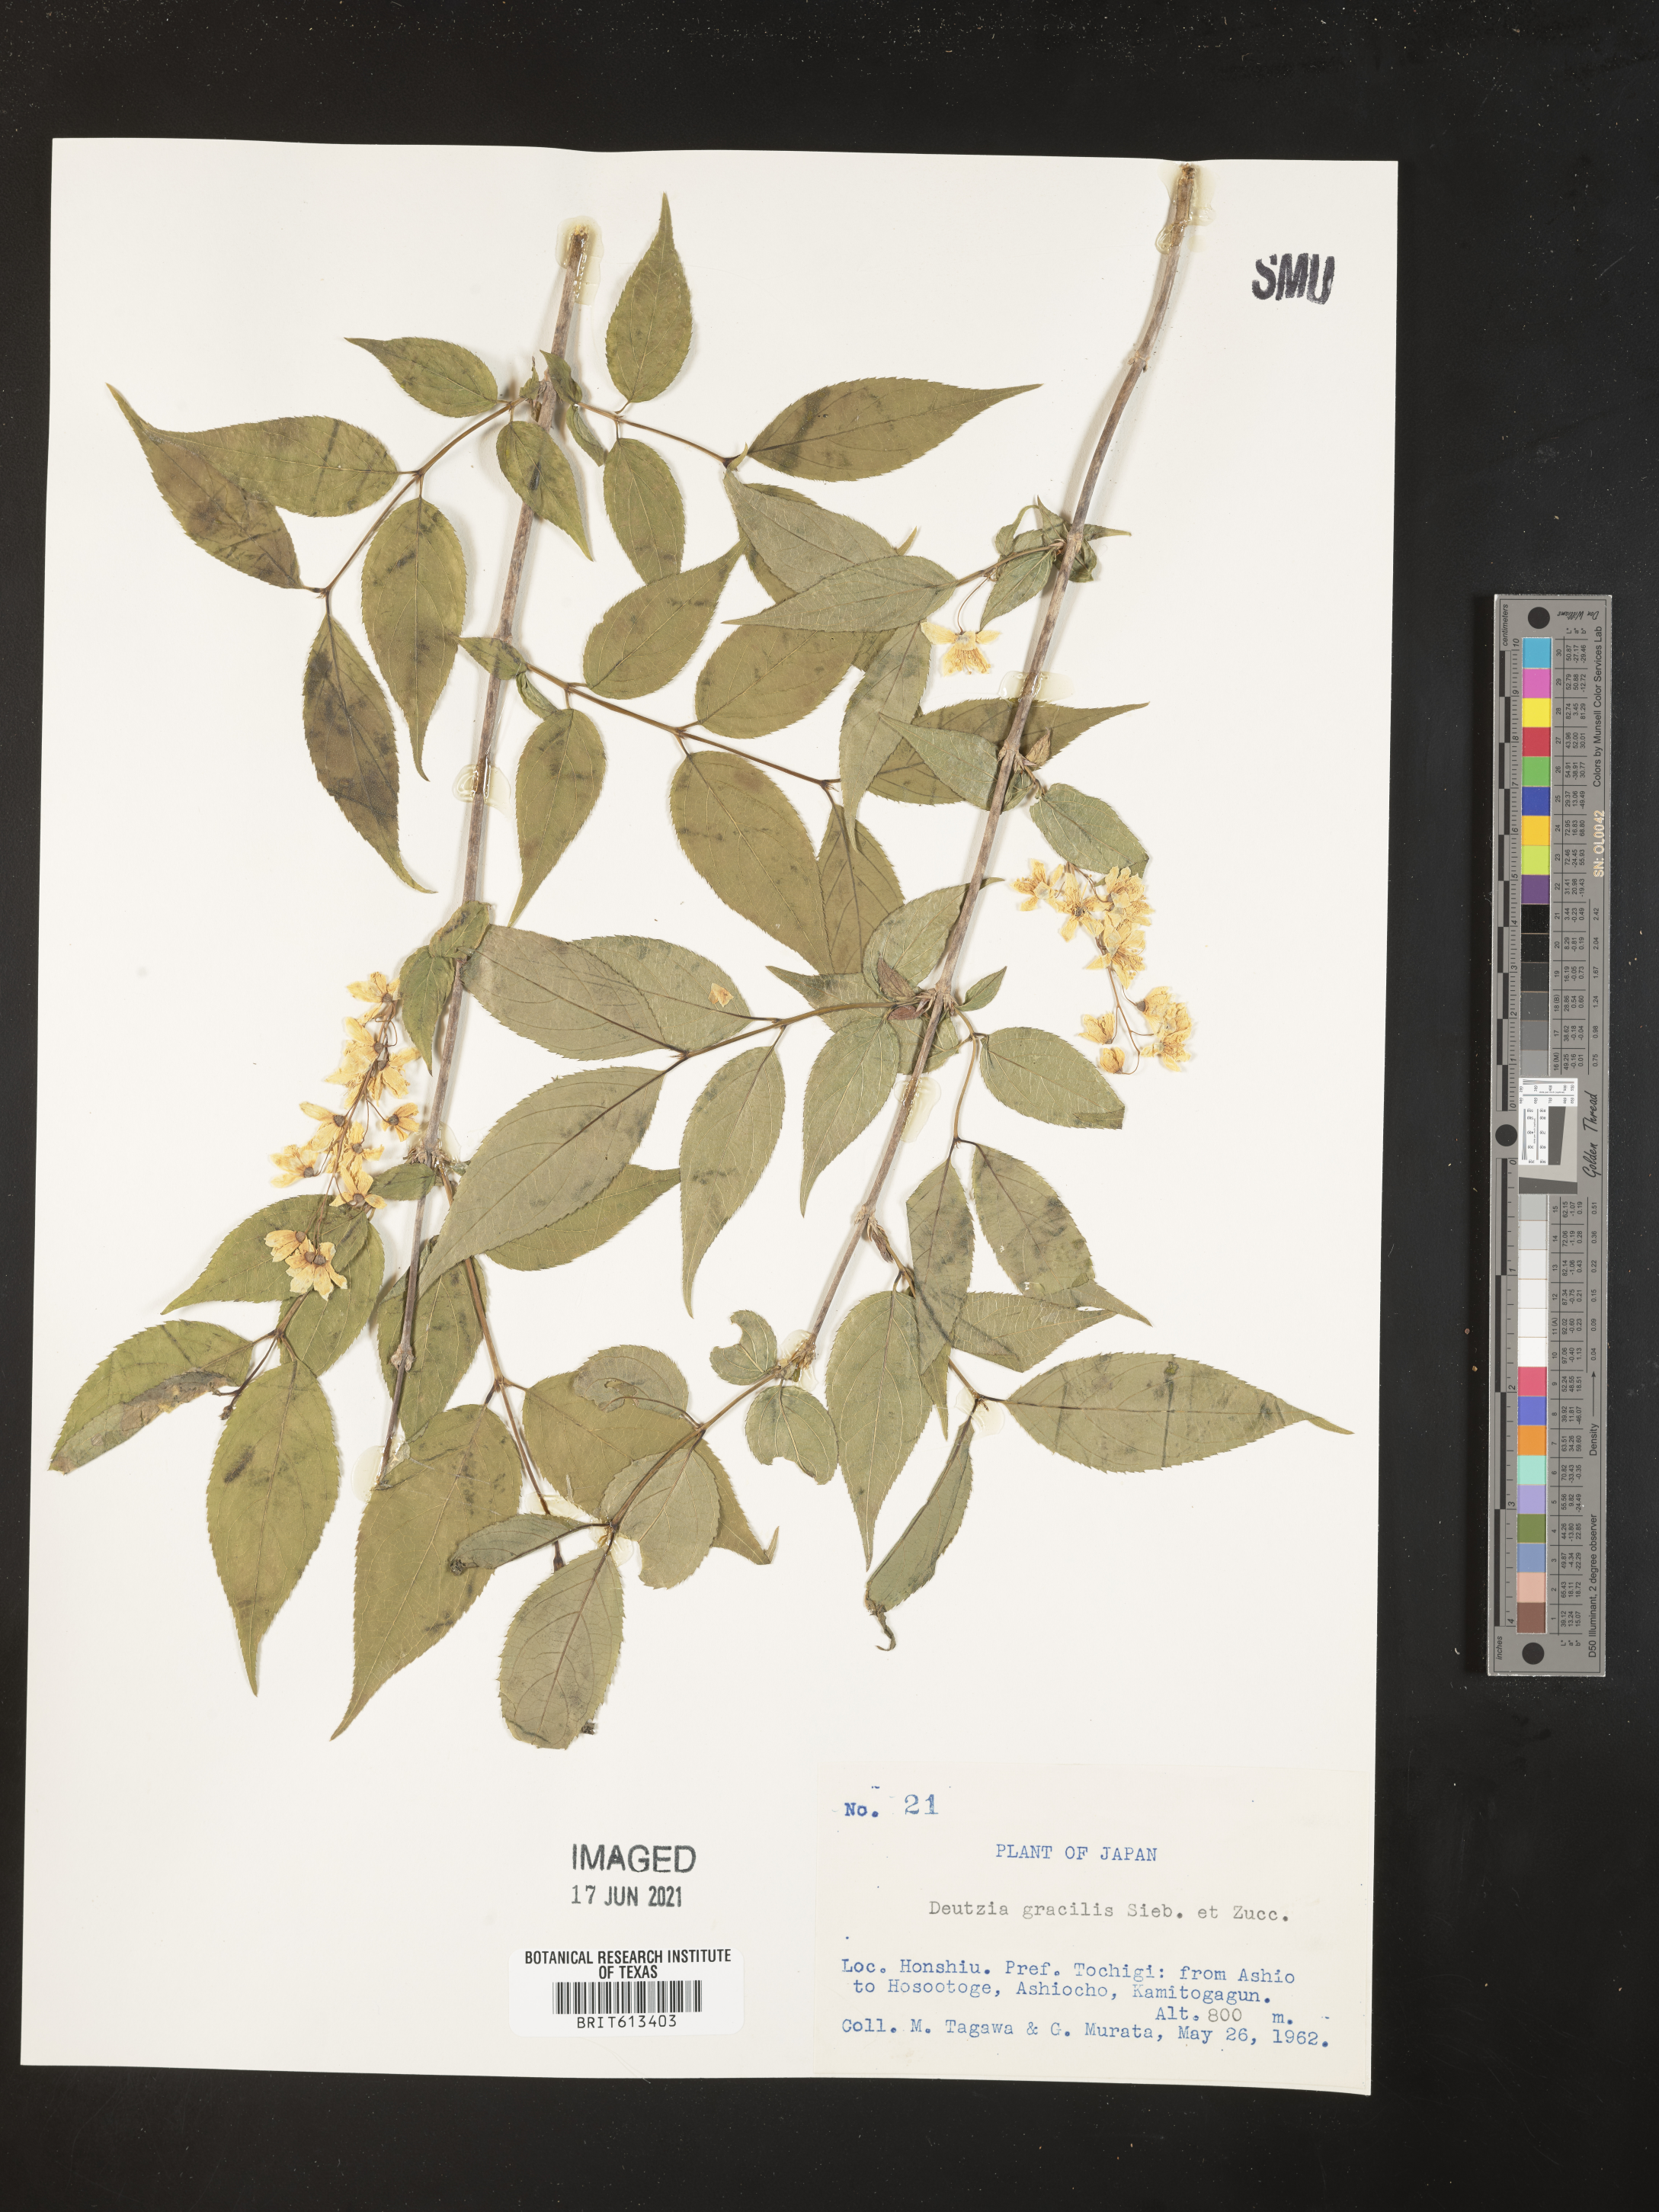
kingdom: Plantae
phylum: Tracheophyta
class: Magnoliopsida
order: Cornales
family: Hydrangeaceae
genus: Deutzia
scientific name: Deutzia gracilis
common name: Slender pride of rochester
